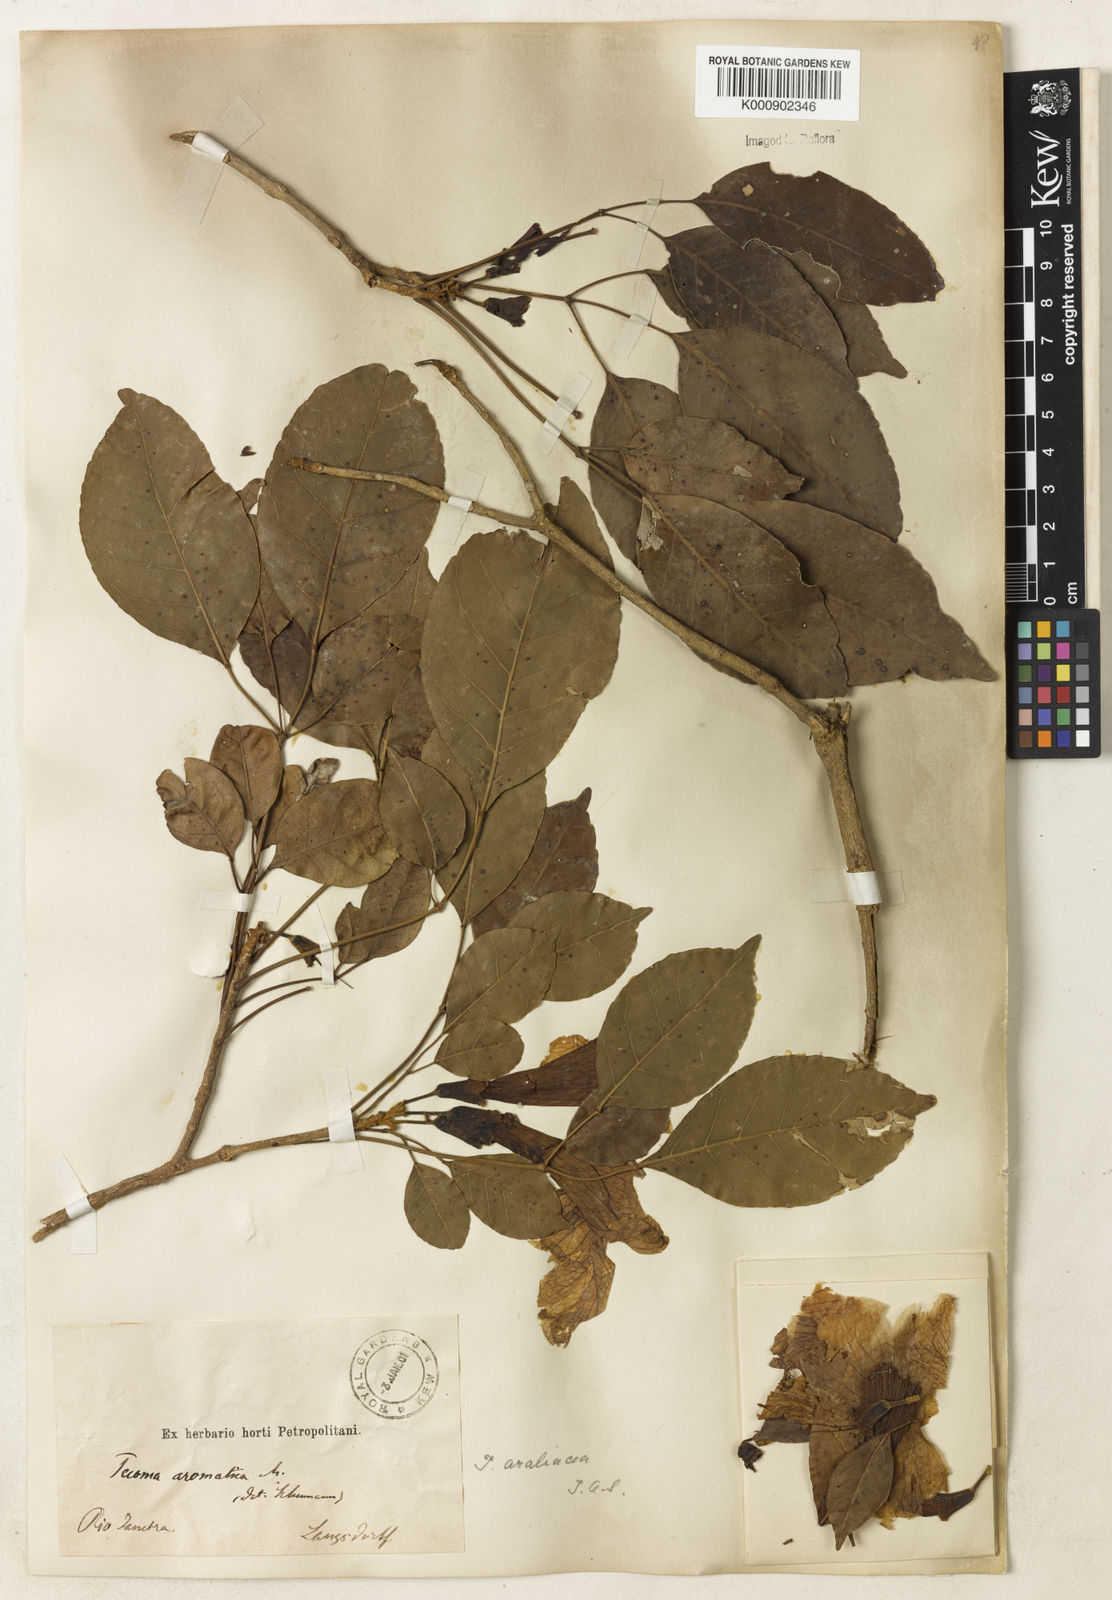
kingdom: Plantae
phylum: Tracheophyta
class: Magnoliopsida
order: Lamiales
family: Bignoniaceae
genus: Handroanthus
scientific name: Handroanthus serratifolius
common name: Yellow ipe
